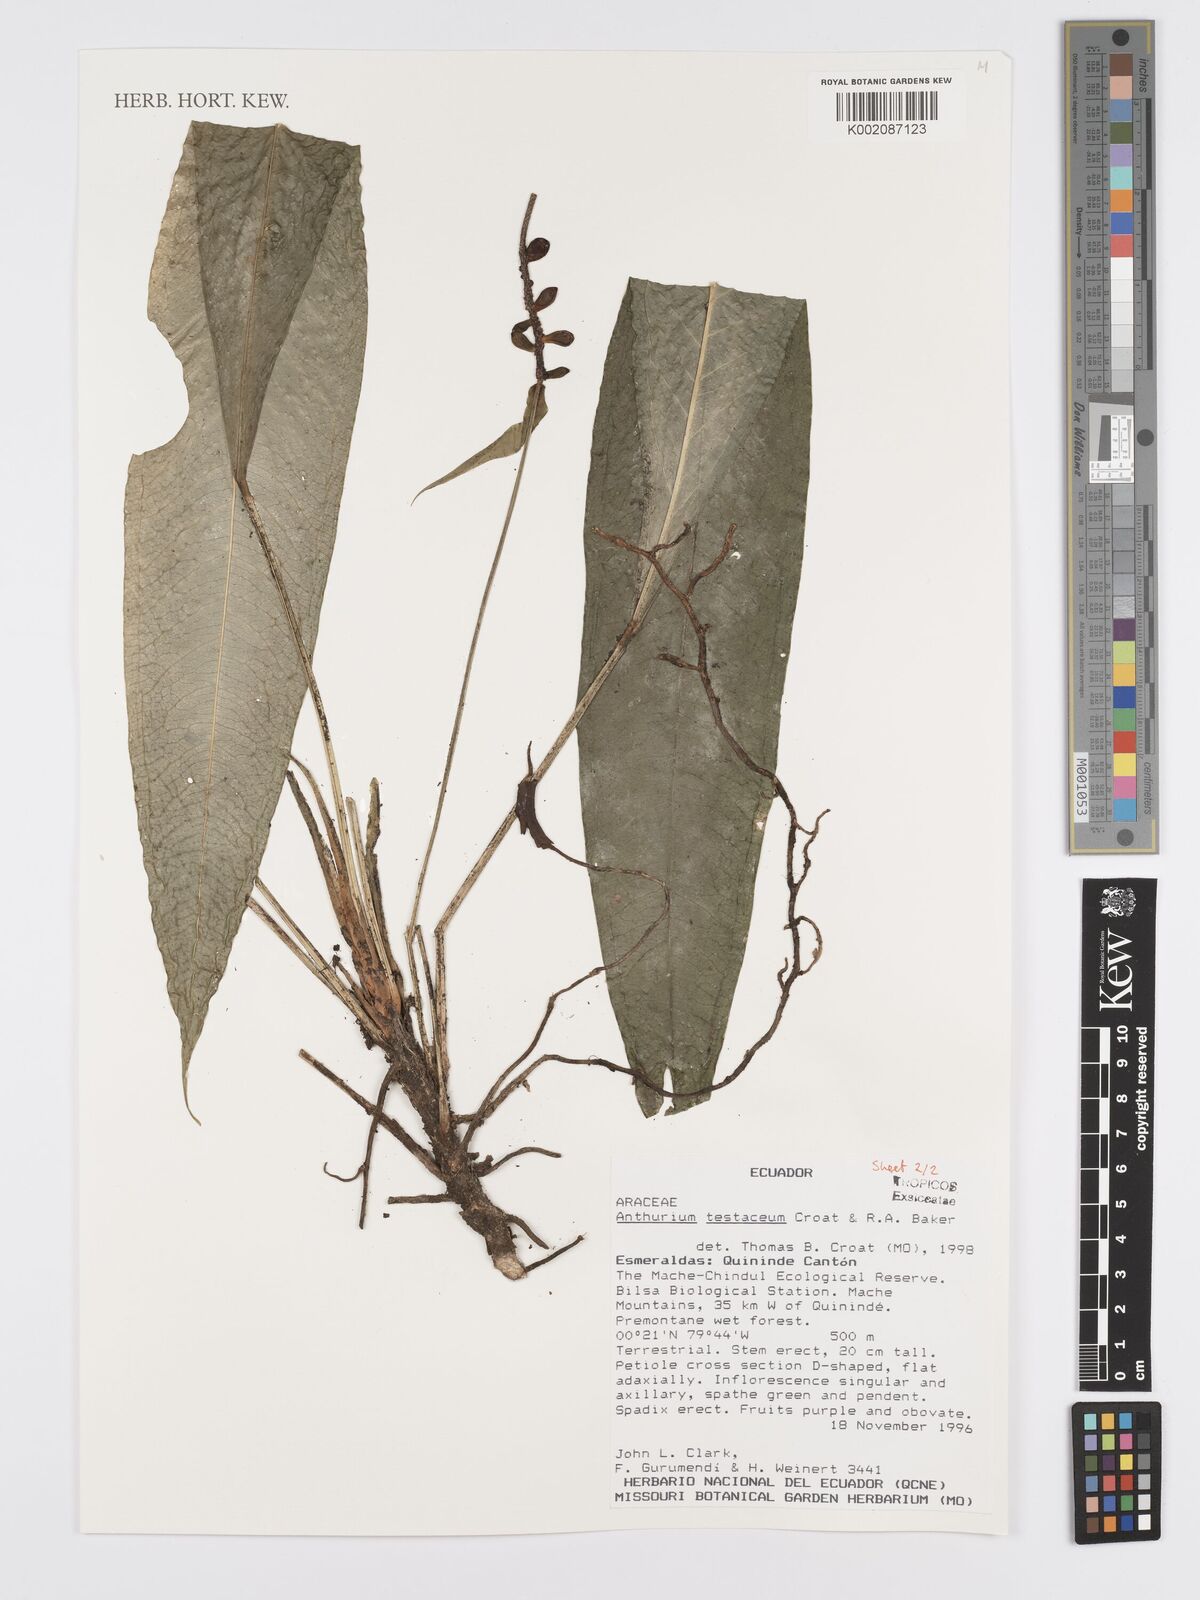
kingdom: Plantae
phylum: Tracheophyta
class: Liliopsida
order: Alismatales
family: Araceae
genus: Anthurium
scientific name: Anthurium testaceum
